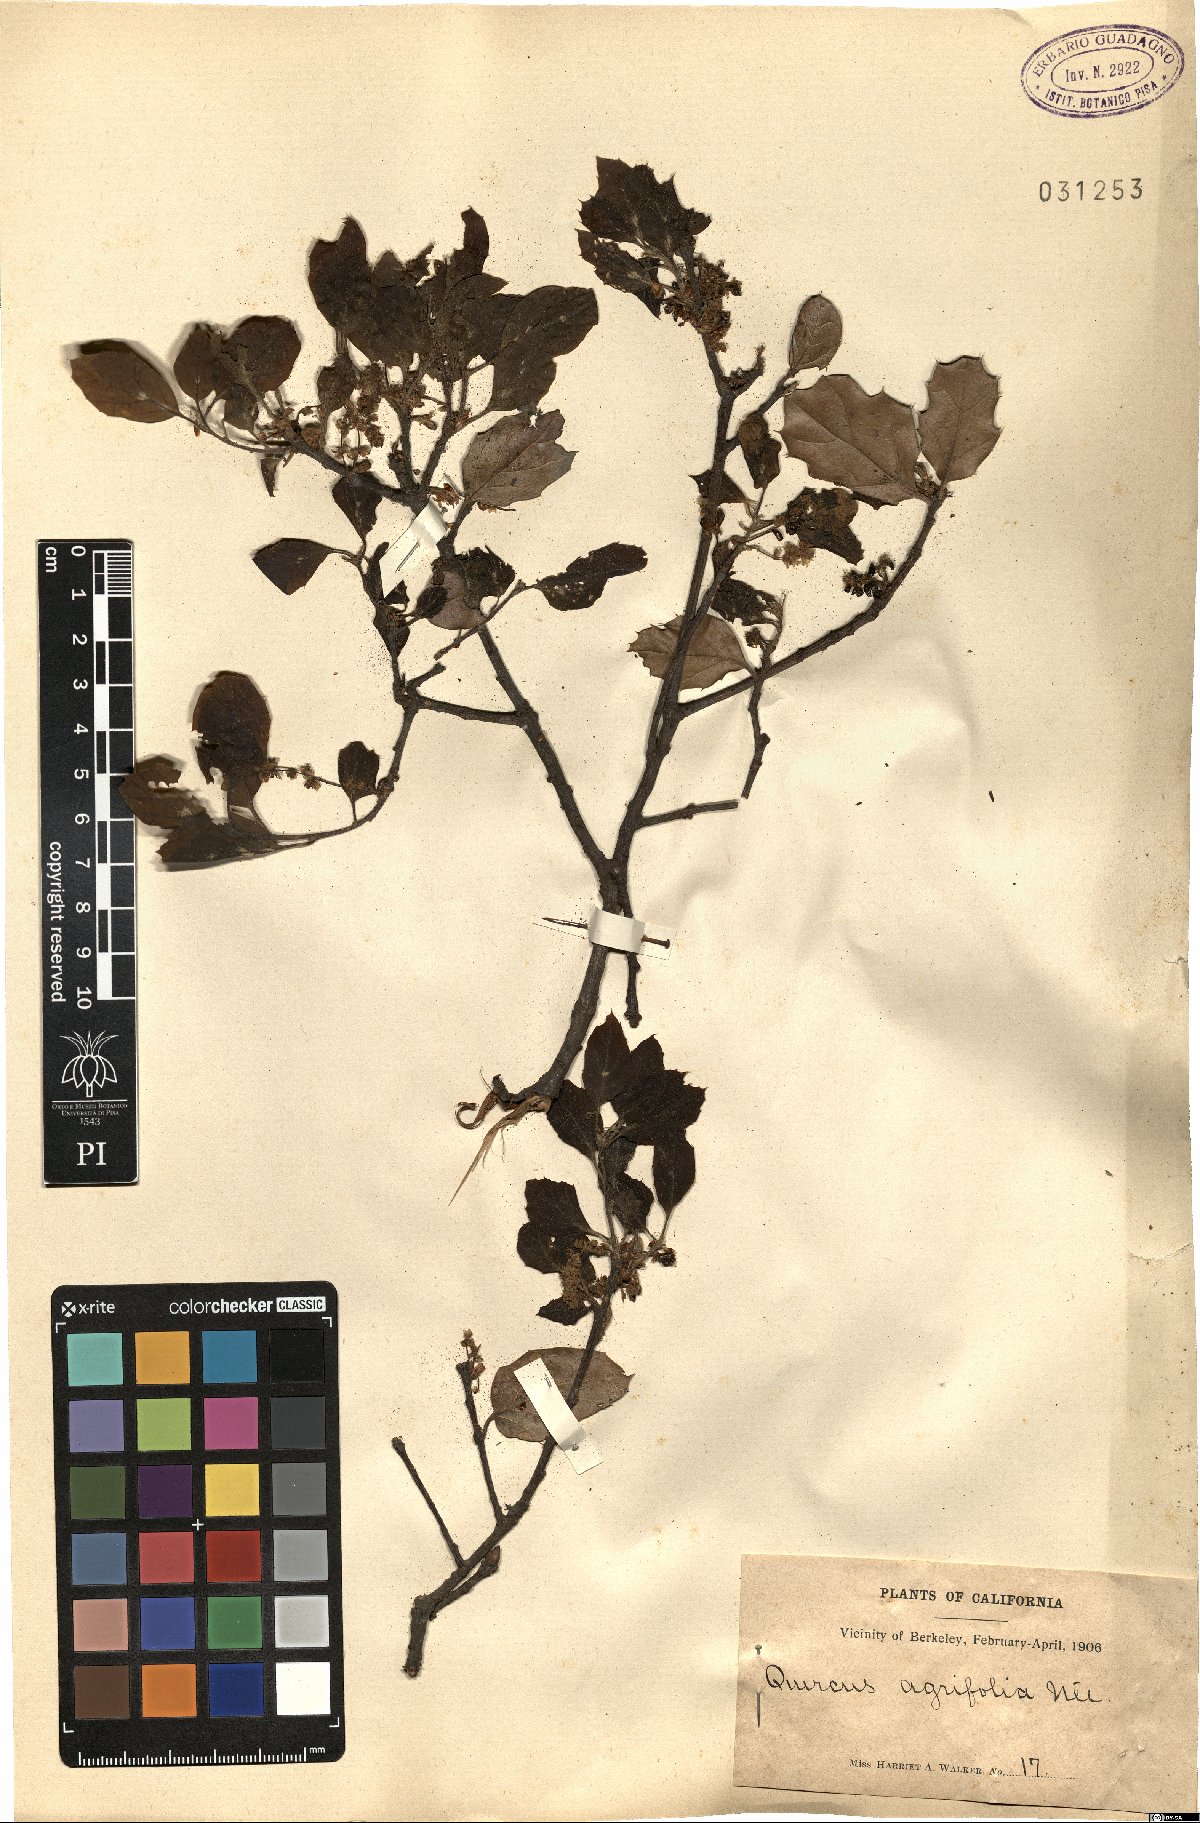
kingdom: Plantae
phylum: Tracheophyta
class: Magnoliopsida
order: Fagales
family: Fagaceae
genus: Quercus
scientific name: Quercus agrifolia
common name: California live oak
